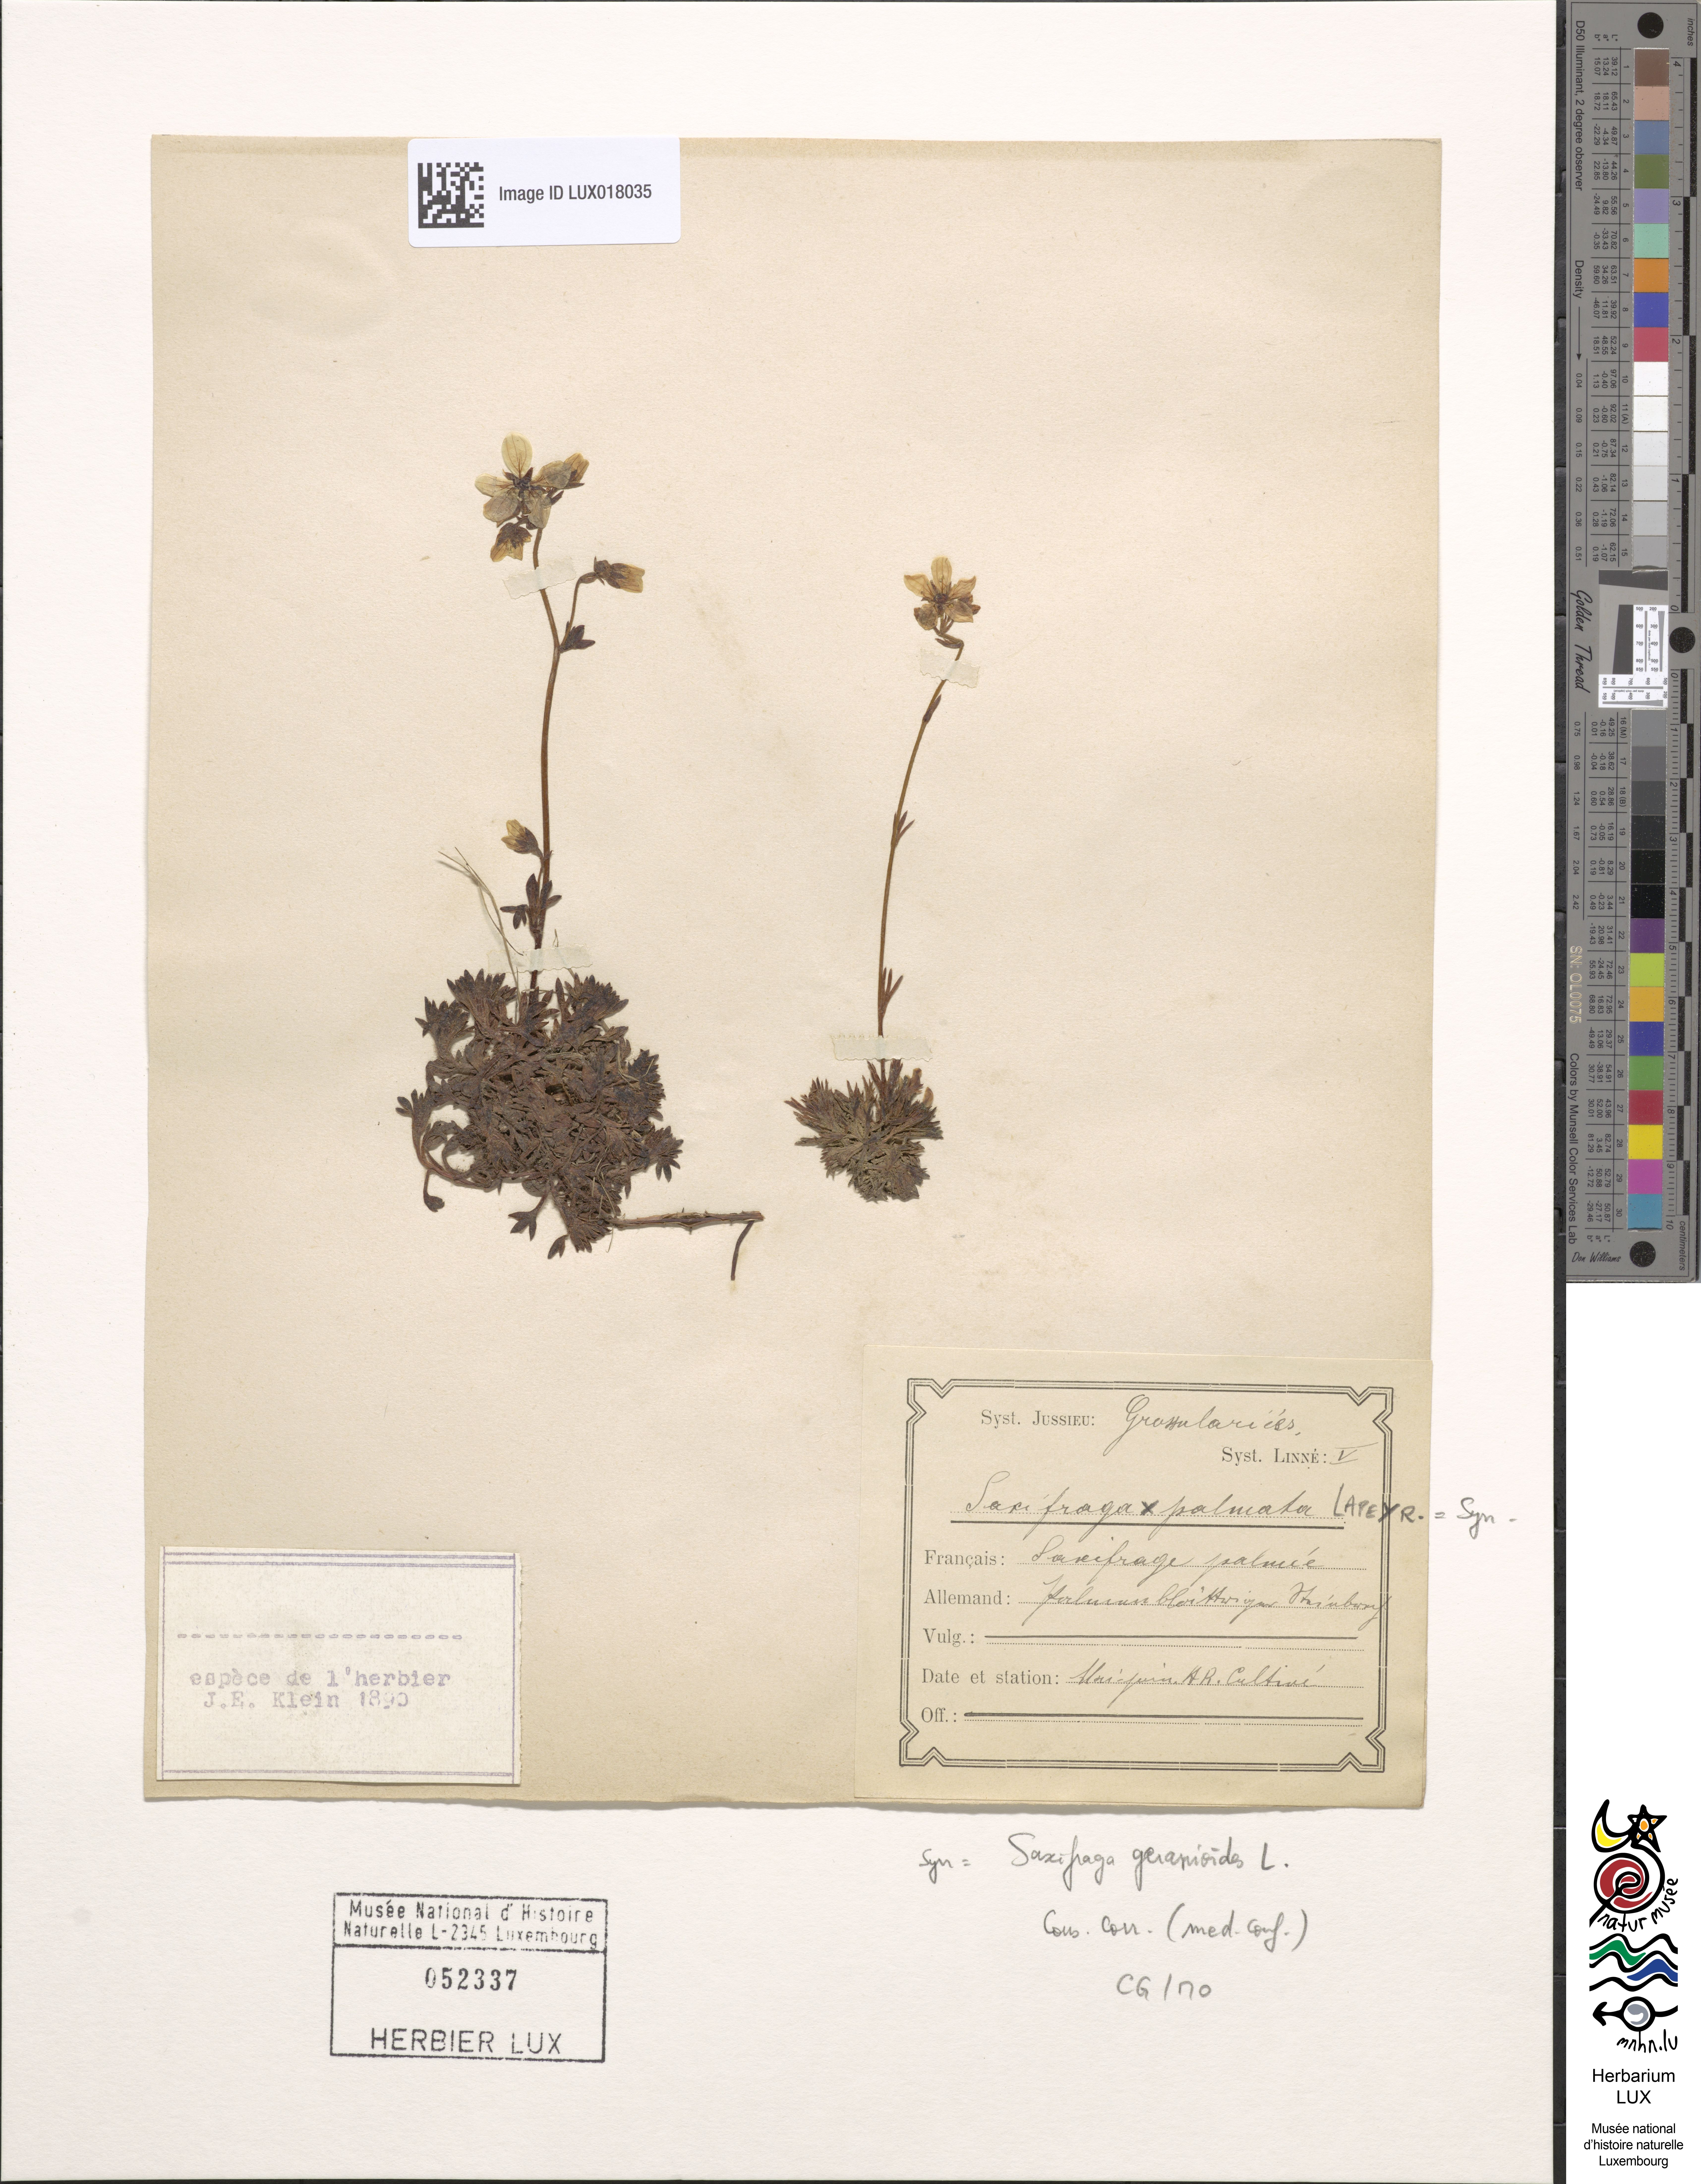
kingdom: Plantae
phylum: Tracheophyta
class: Magnoliopsida
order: Saxifragales
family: Saxifragaceae
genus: Saxifraga
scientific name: Saxifraga geranioides
